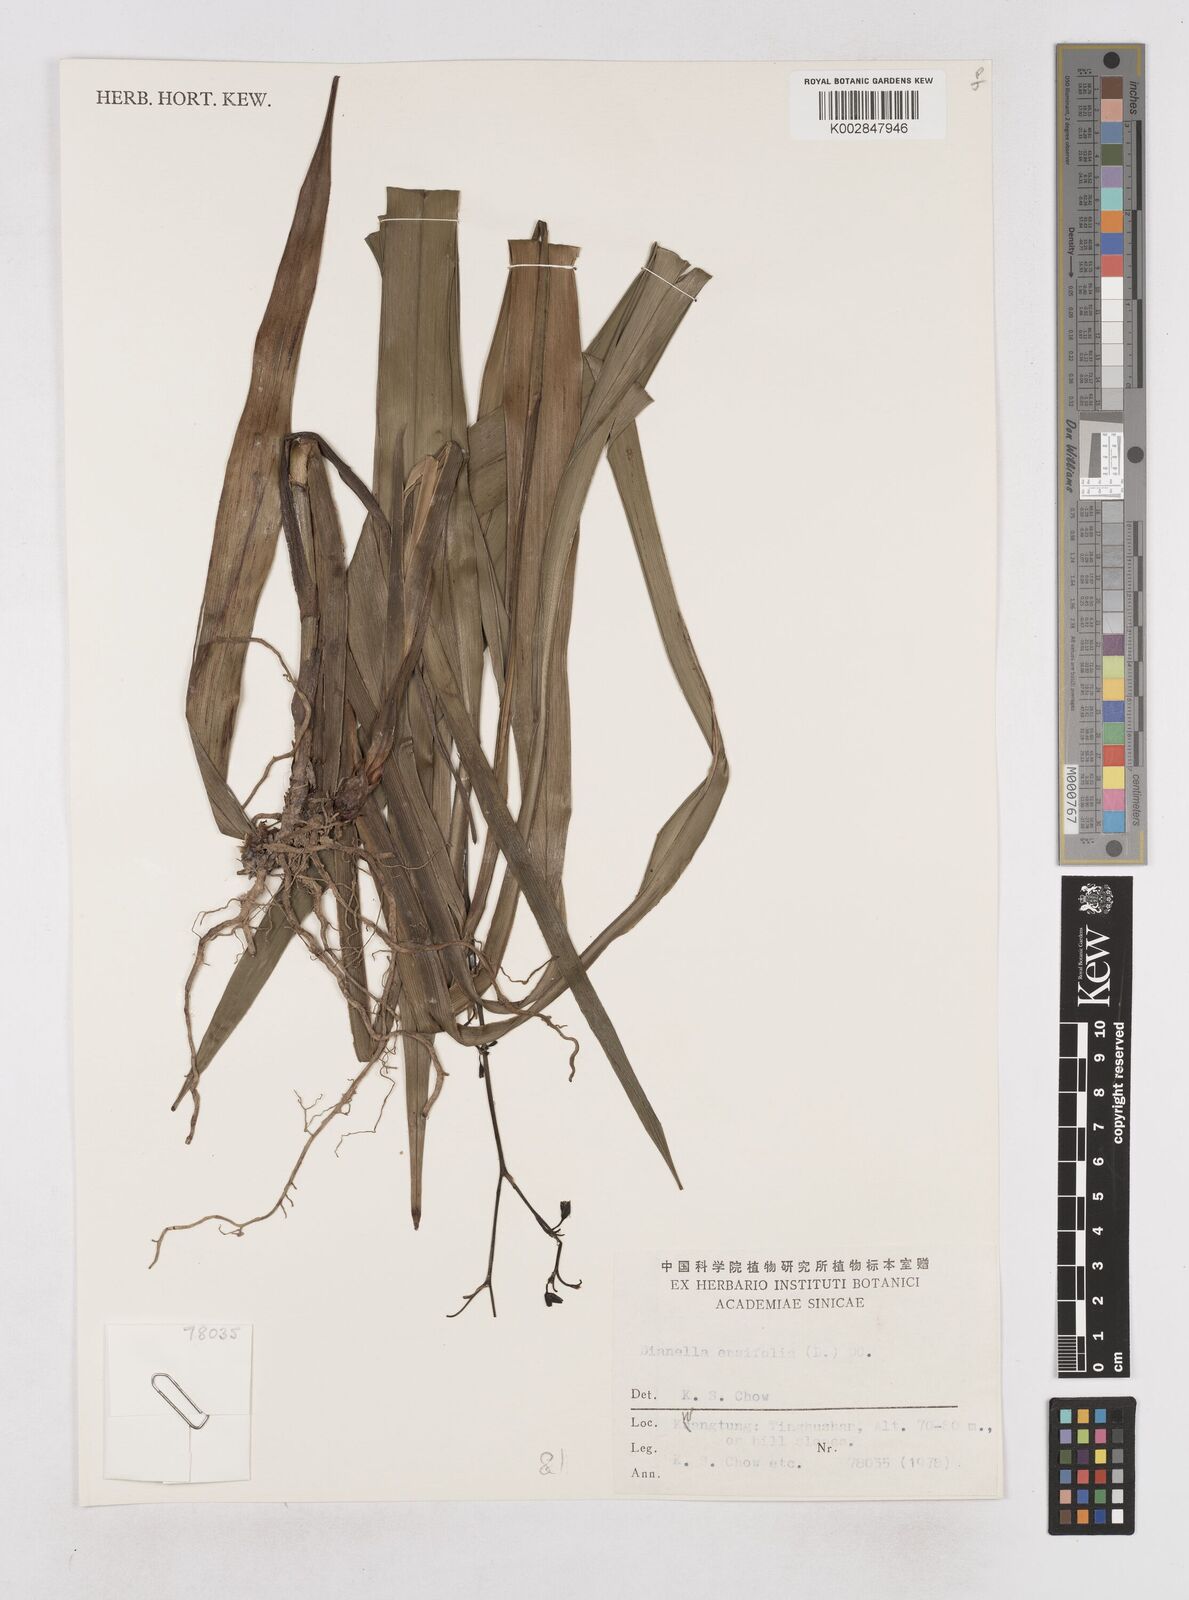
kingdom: Plantae
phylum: Tracheophyta
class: Liliopsida
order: Asparagales
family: Asphodelaceae
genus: Dianella
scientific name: Dianella ensifolia
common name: New zealand lilyplant
